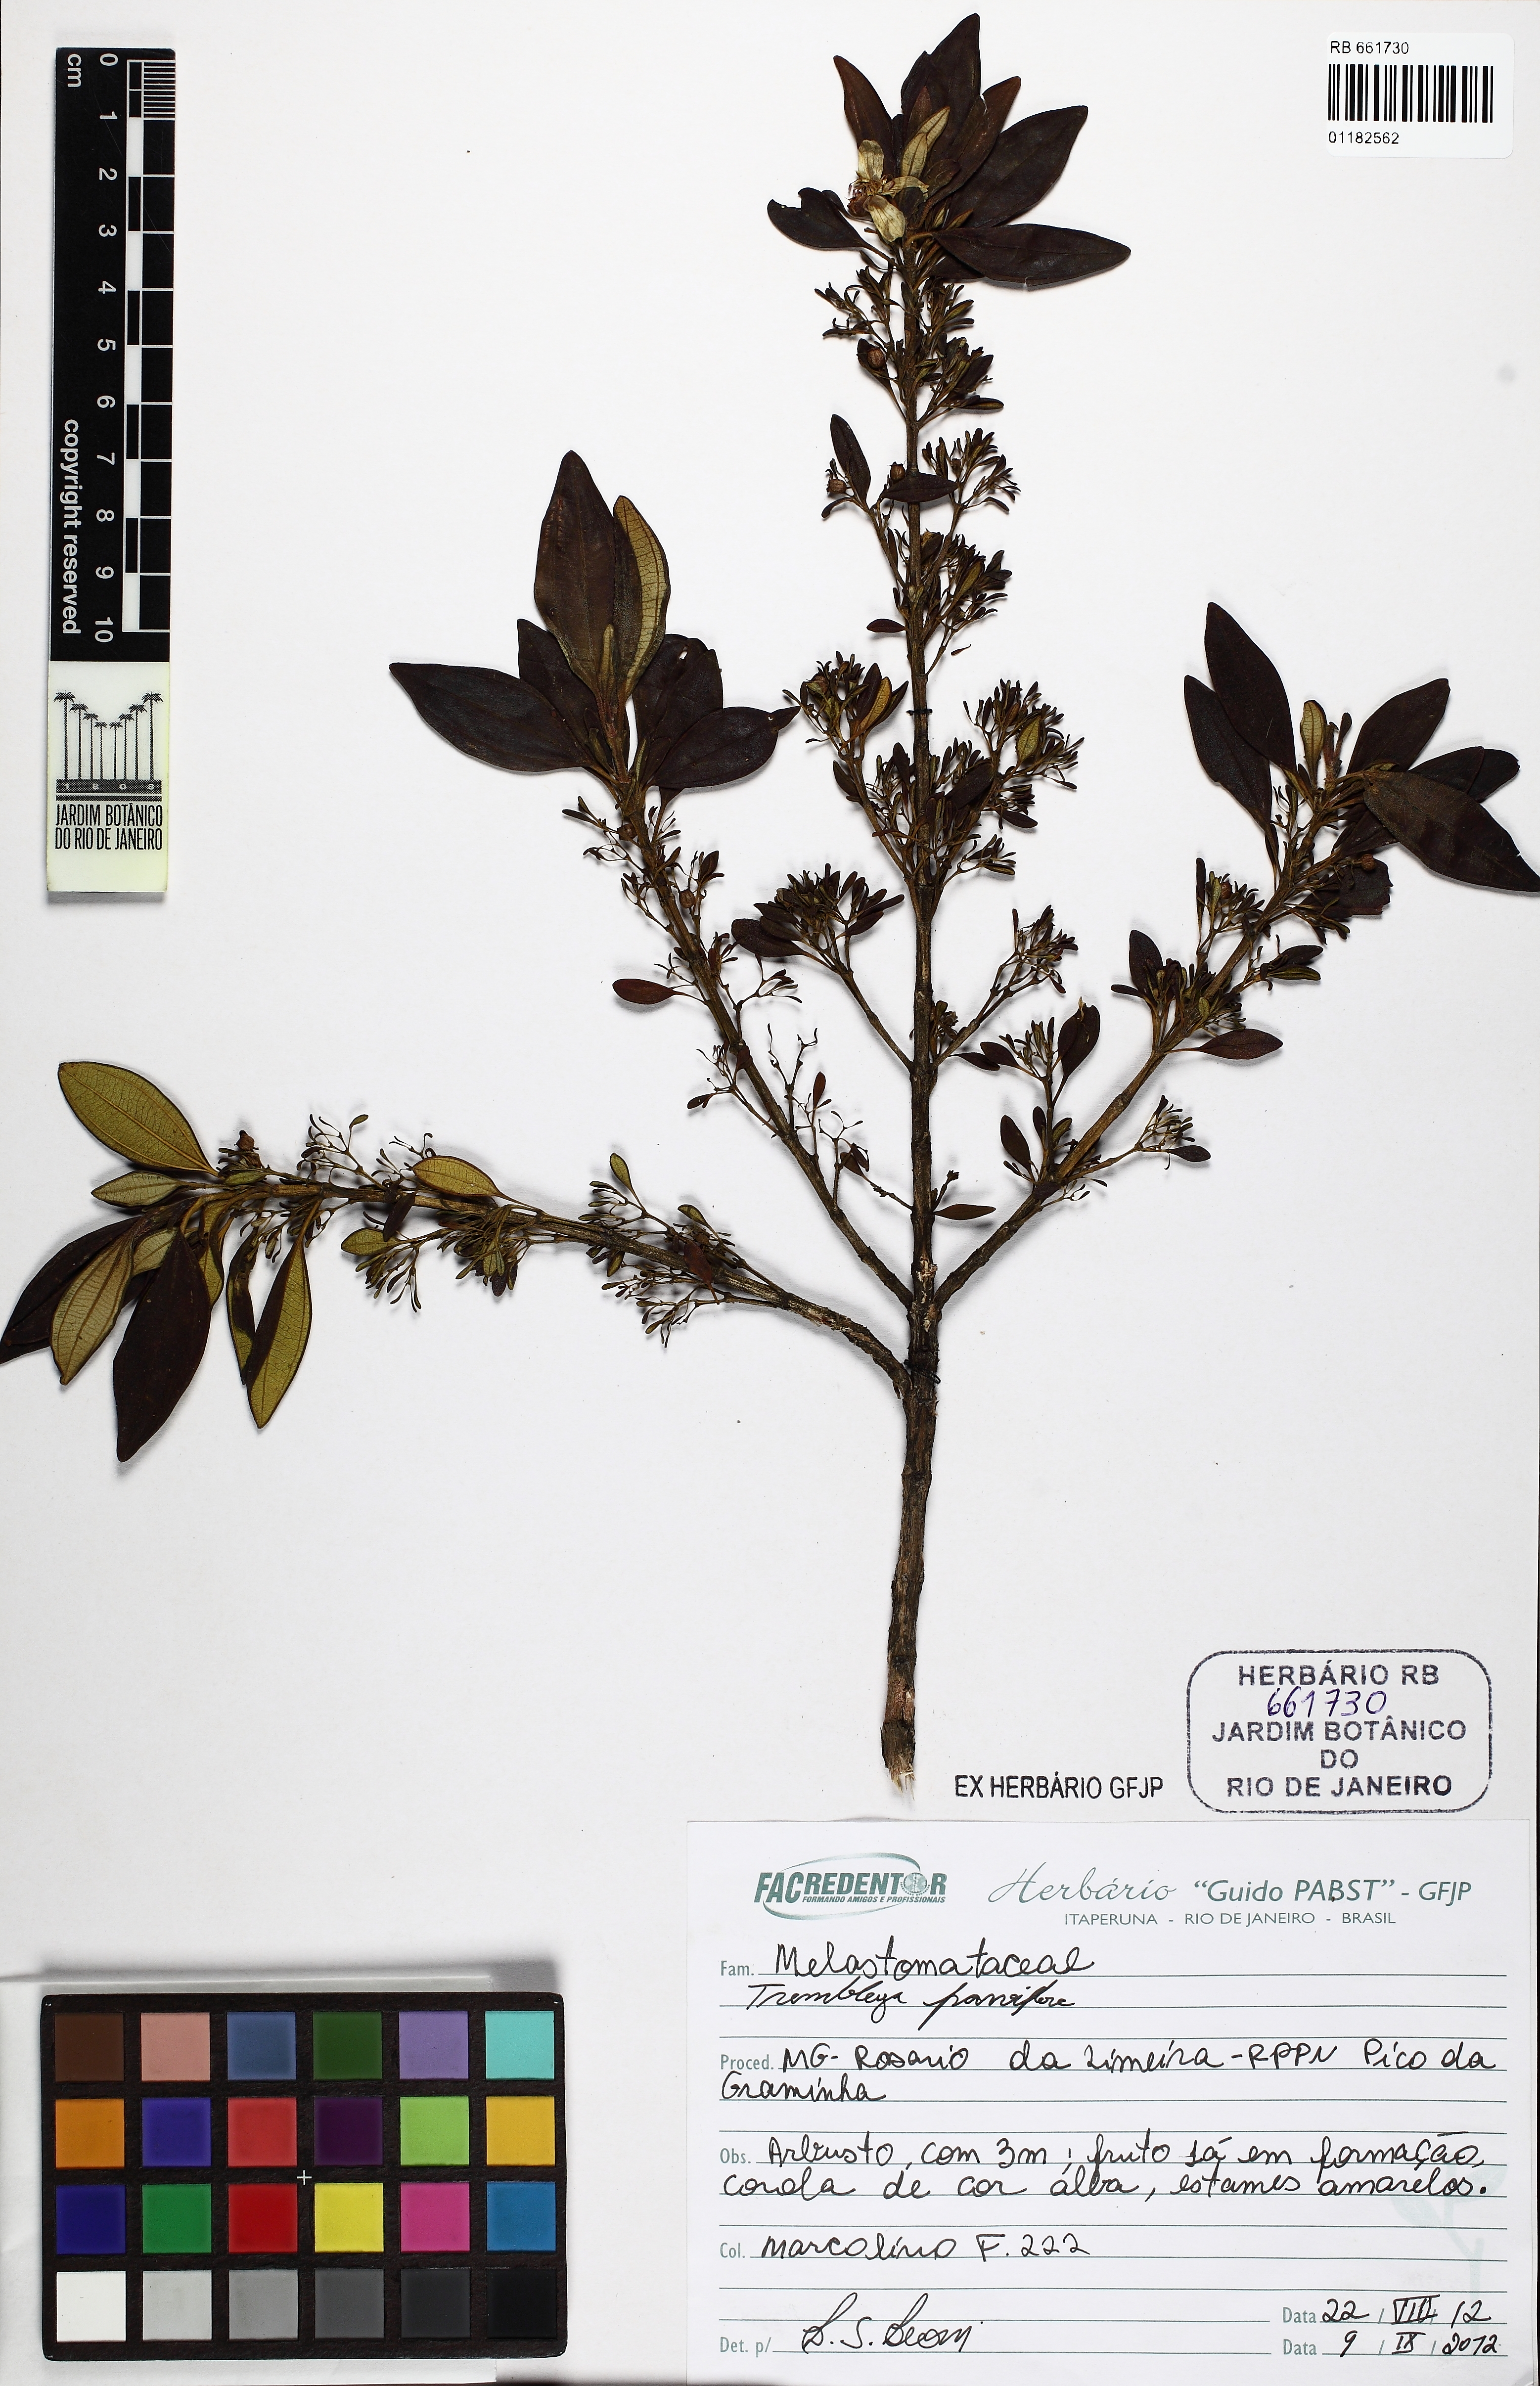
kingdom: Plantae
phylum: Tracheophyta
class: Magnoliopsida
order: Myrtales
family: Melastomataceae
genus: Microlicia
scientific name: Microlicia parviflora
